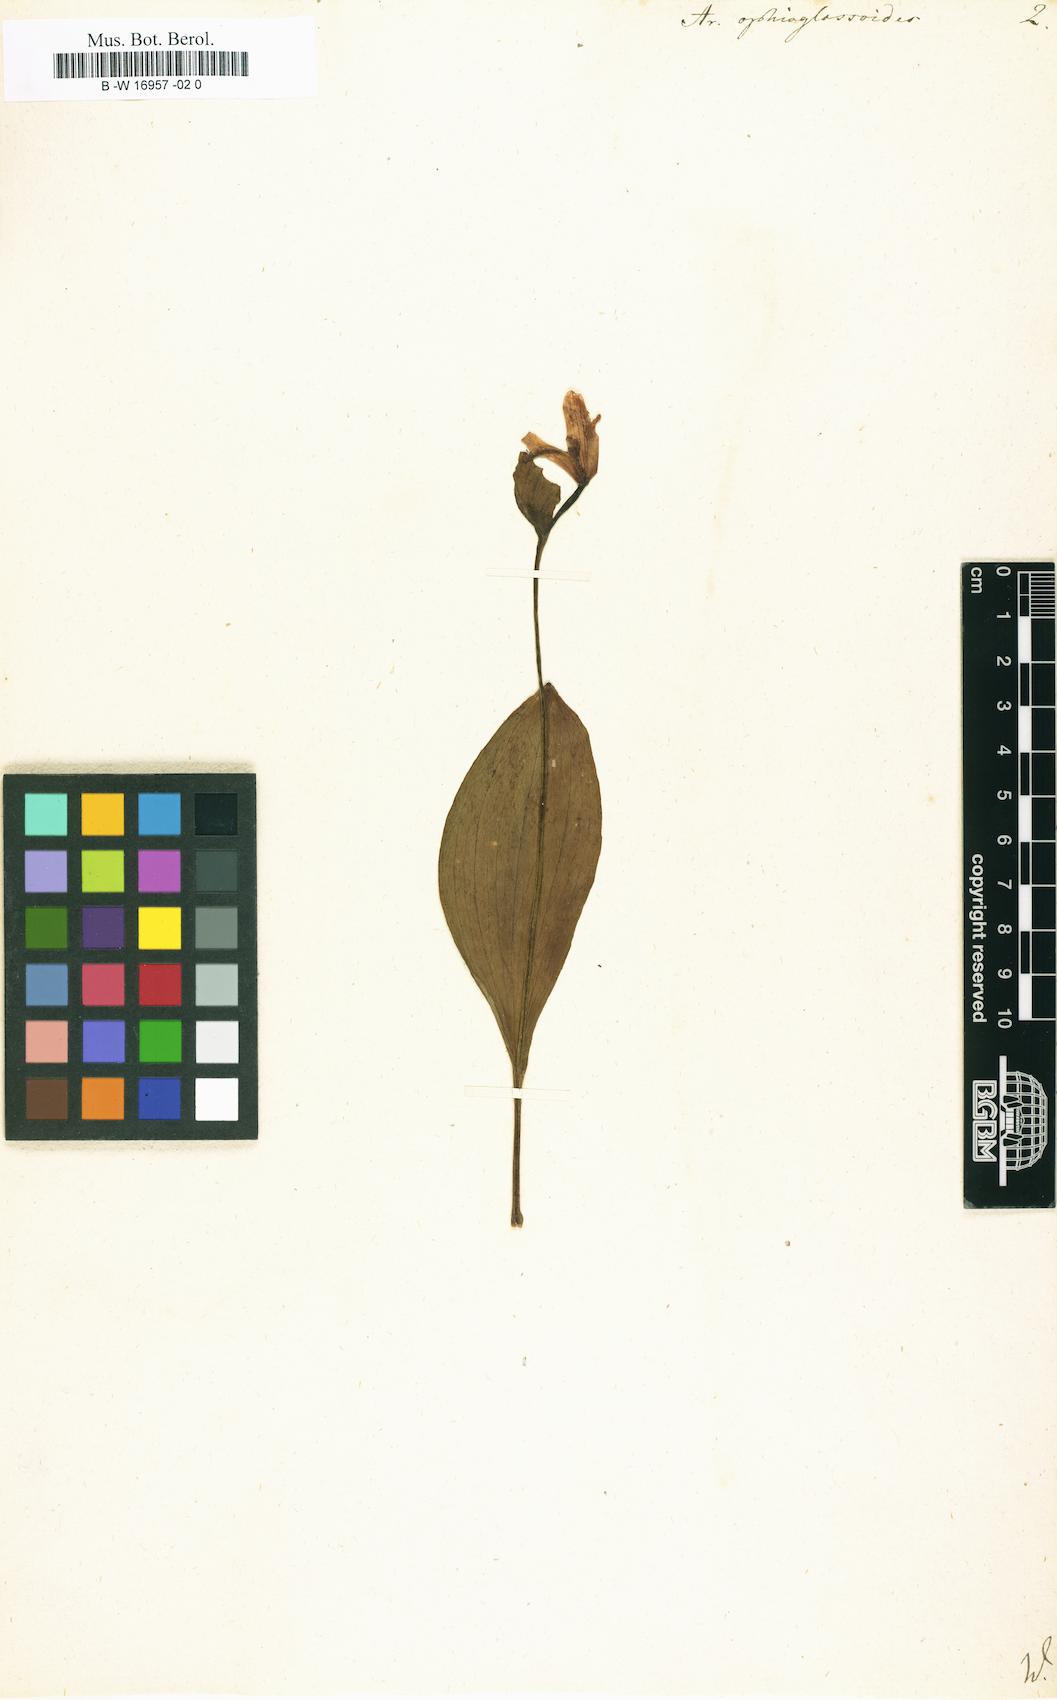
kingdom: Plantae
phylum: Tracheophyta
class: Liliopsida
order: Asparagales
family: Orchidaceae
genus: Pogonia
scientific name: Pogonia ophioglossoides
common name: Rose pogonia
